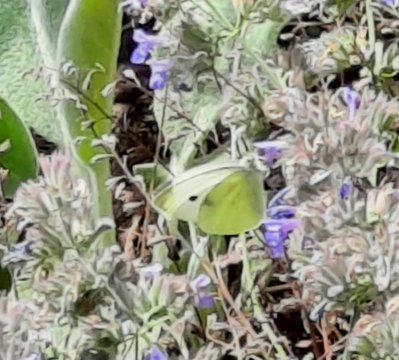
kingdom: Animalia
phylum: Arthropoda
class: Insecta
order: Lepidoptera
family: Pieridae
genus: Pieris
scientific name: Pieris rapae
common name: Cabbage White
